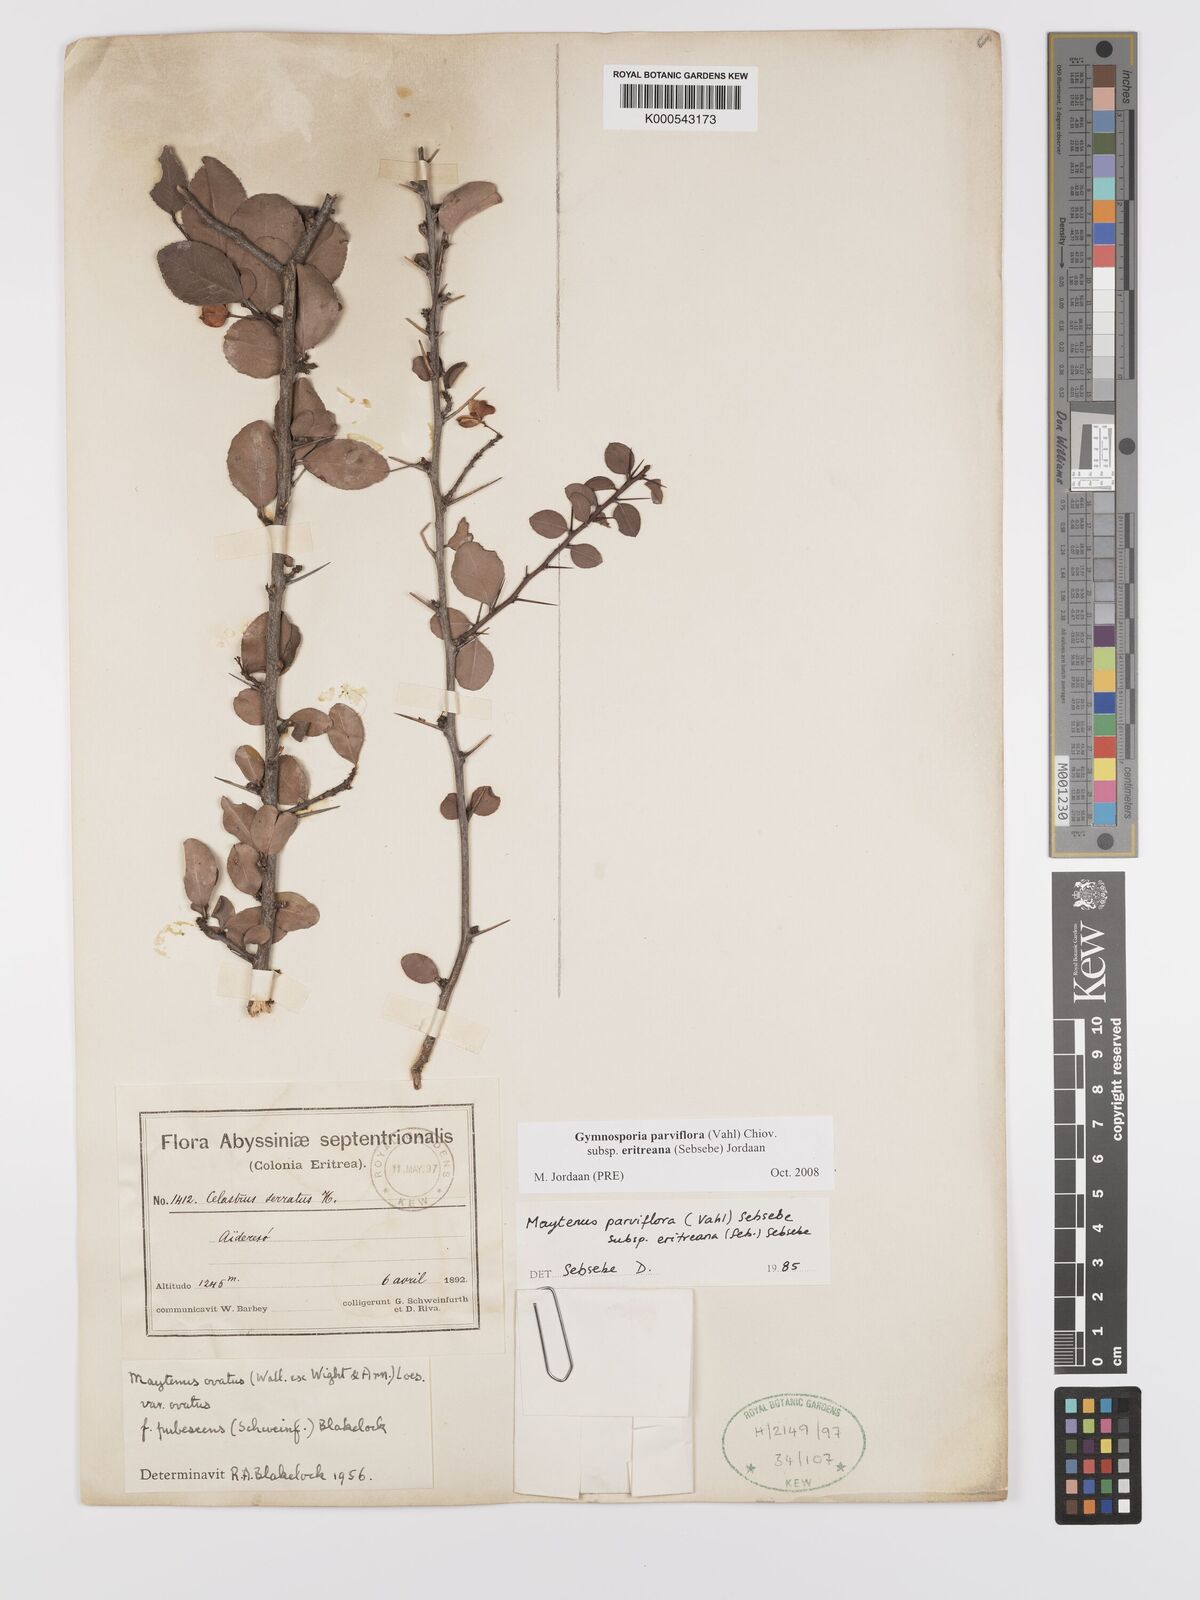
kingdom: Plantae
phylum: Tracheophyta
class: Magnoliopsida
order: Celastrales
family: Celastraceae
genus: Gymnosporia
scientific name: Gymnosporia parviflora
